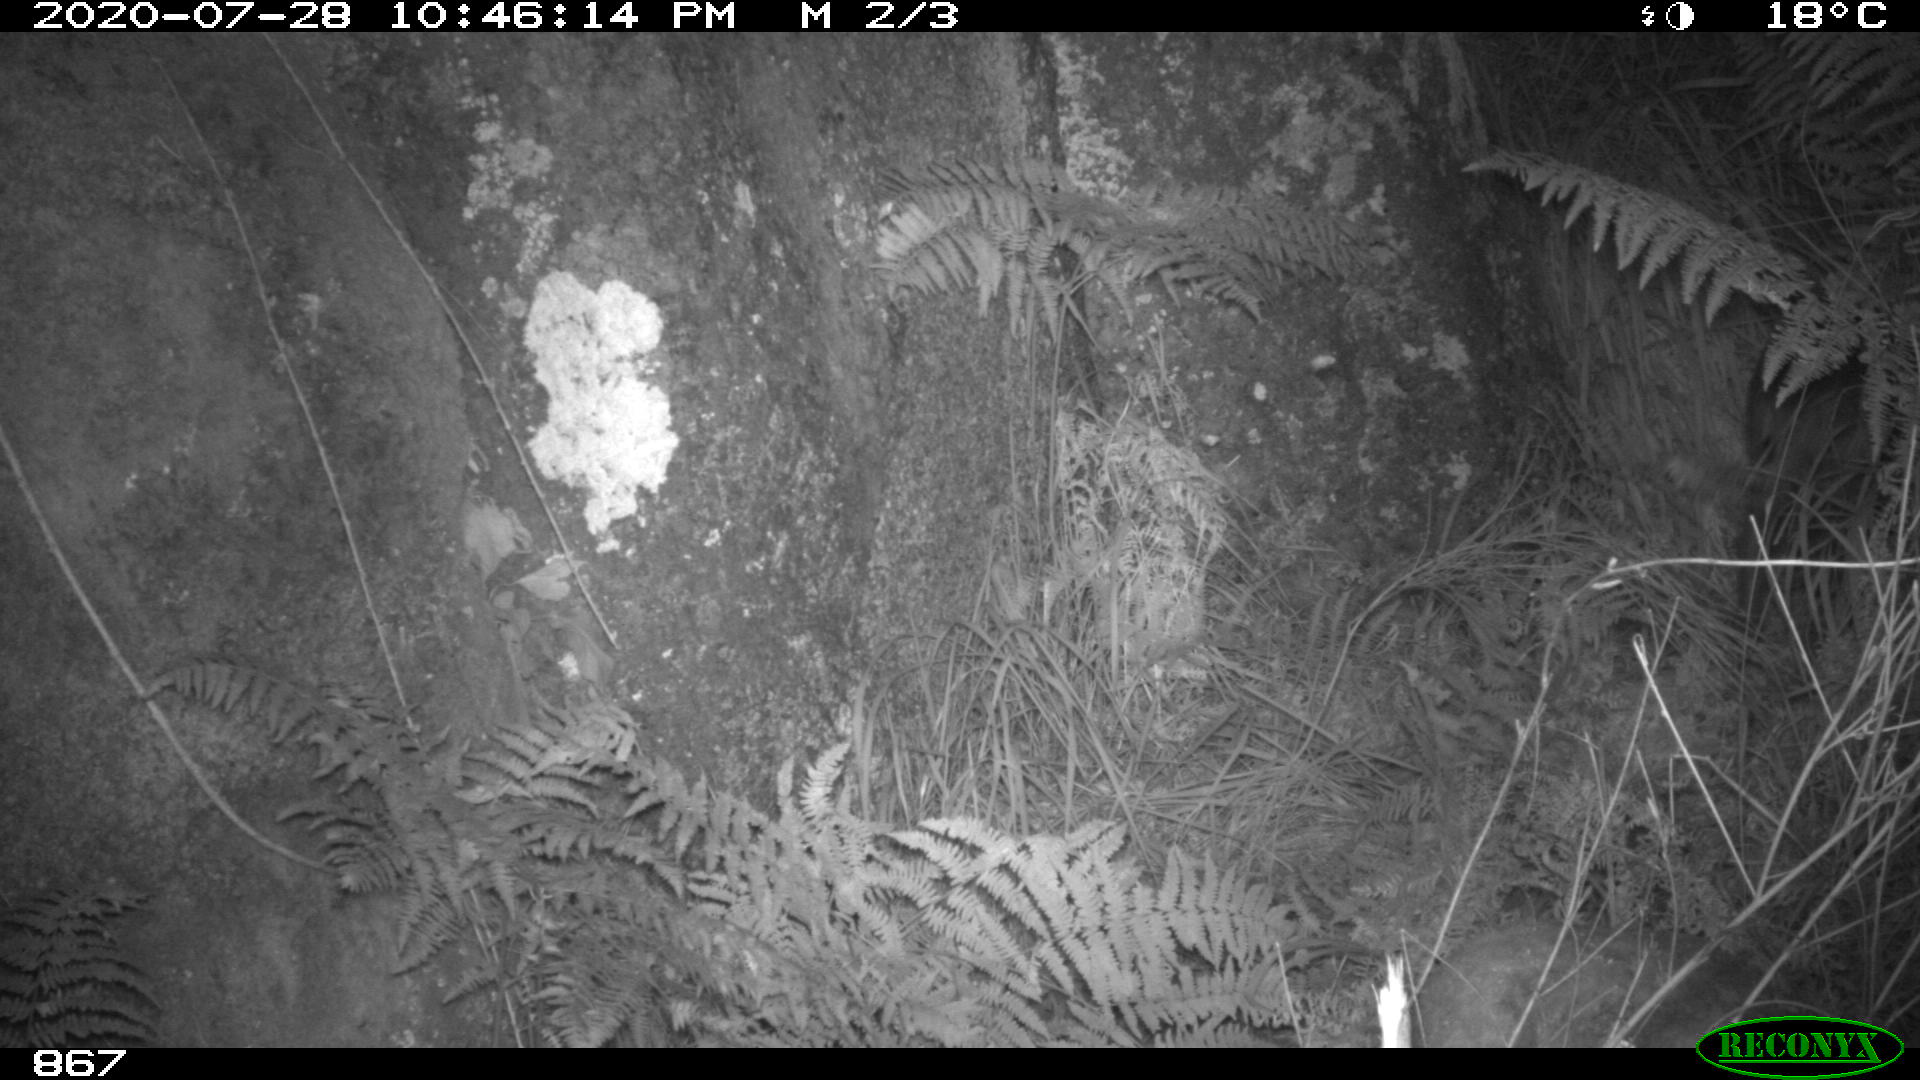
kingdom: Animalia
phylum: Chordata
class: Mammalia
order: Artiodactyla
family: Suidae
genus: Sus
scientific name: Sus scrofa
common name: Wild boar
